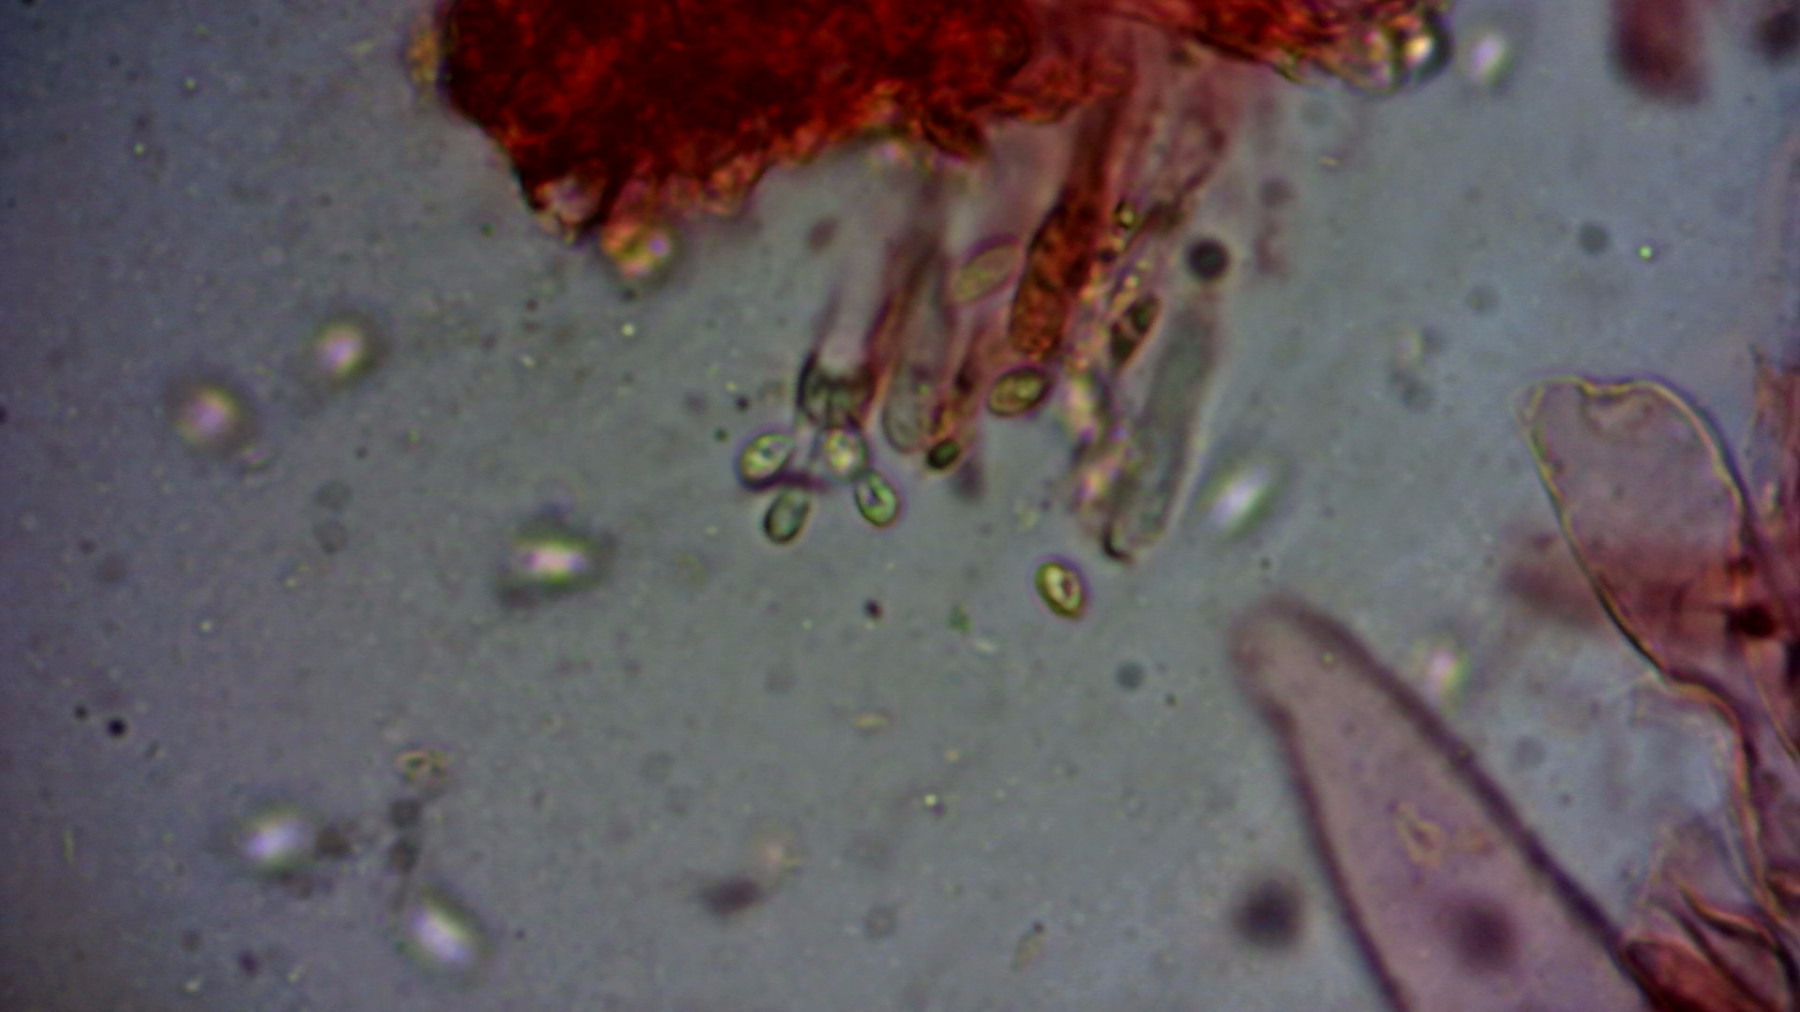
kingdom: Fungi
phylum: Basidiomycota
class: Agaricomycetes
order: Agaricales
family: Mycenaceae
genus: Hemimycena
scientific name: Hemimycena
